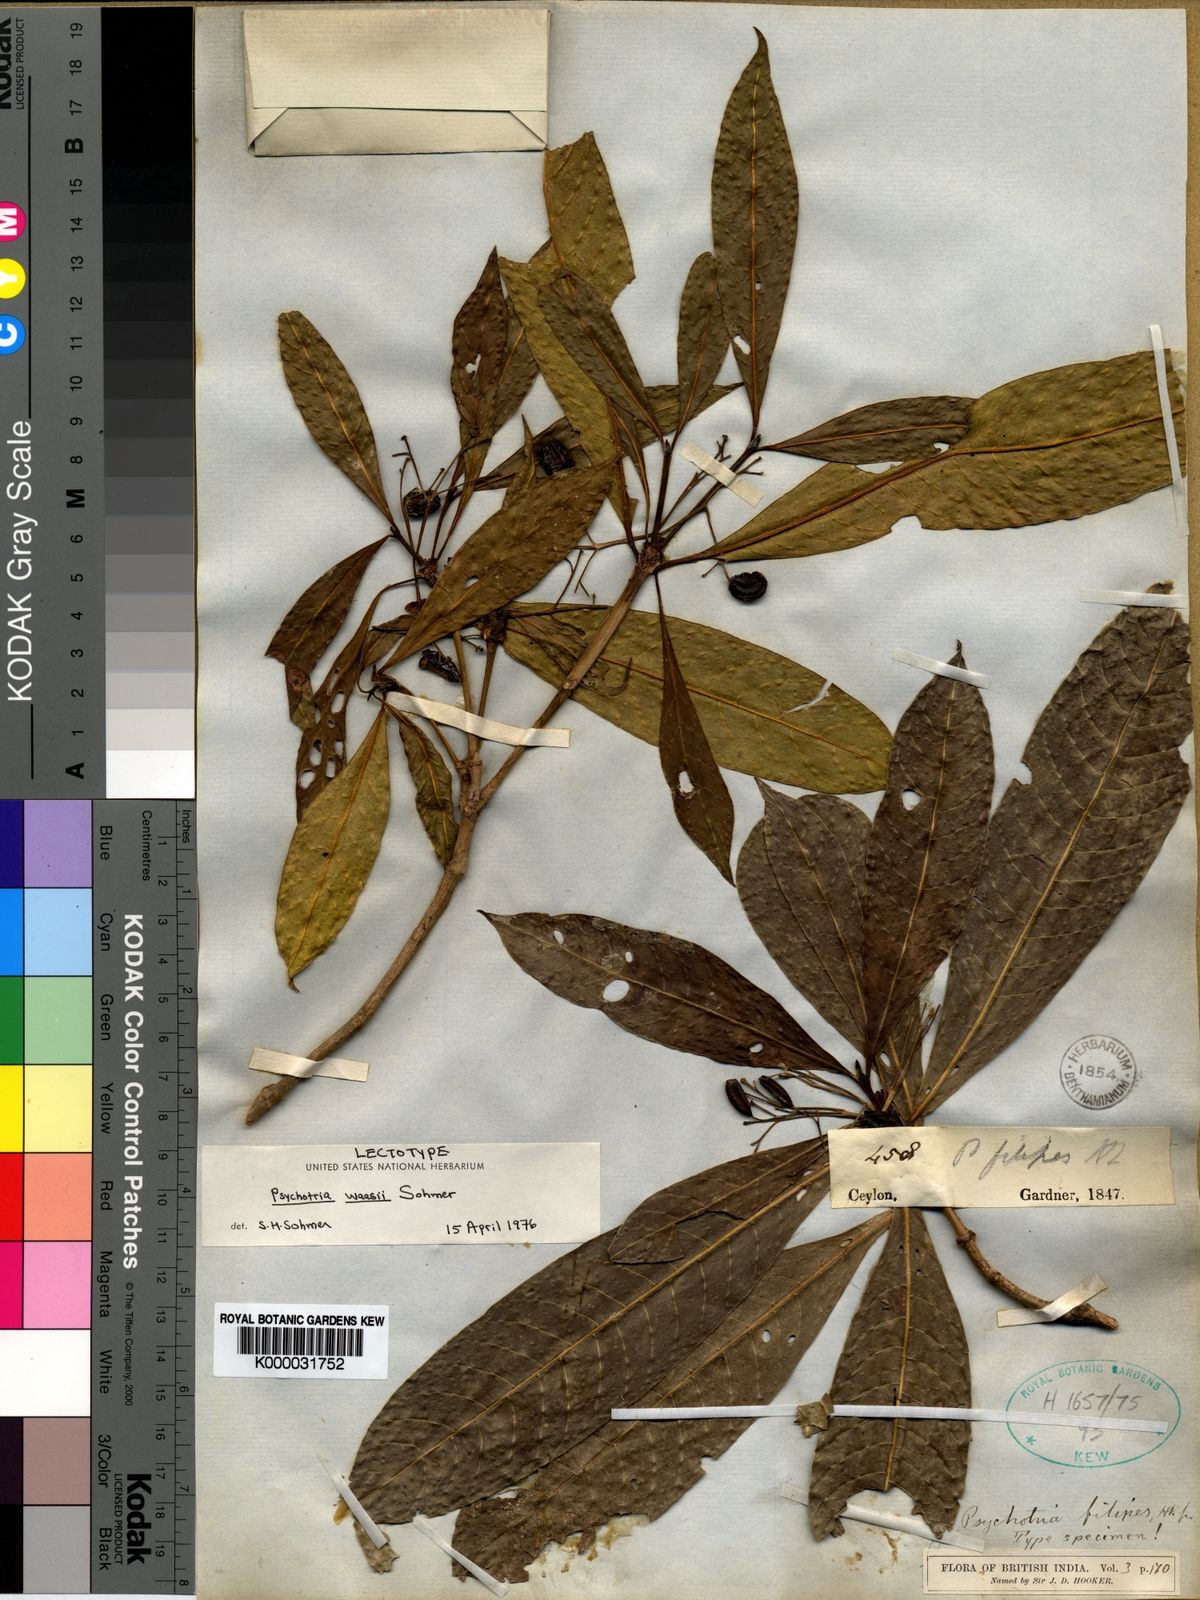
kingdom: Plantae
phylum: Tracheophyta
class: Magnoliopsida
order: Gentianales
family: Rubiaceae
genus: Psychotria
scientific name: Psychotria josephi
